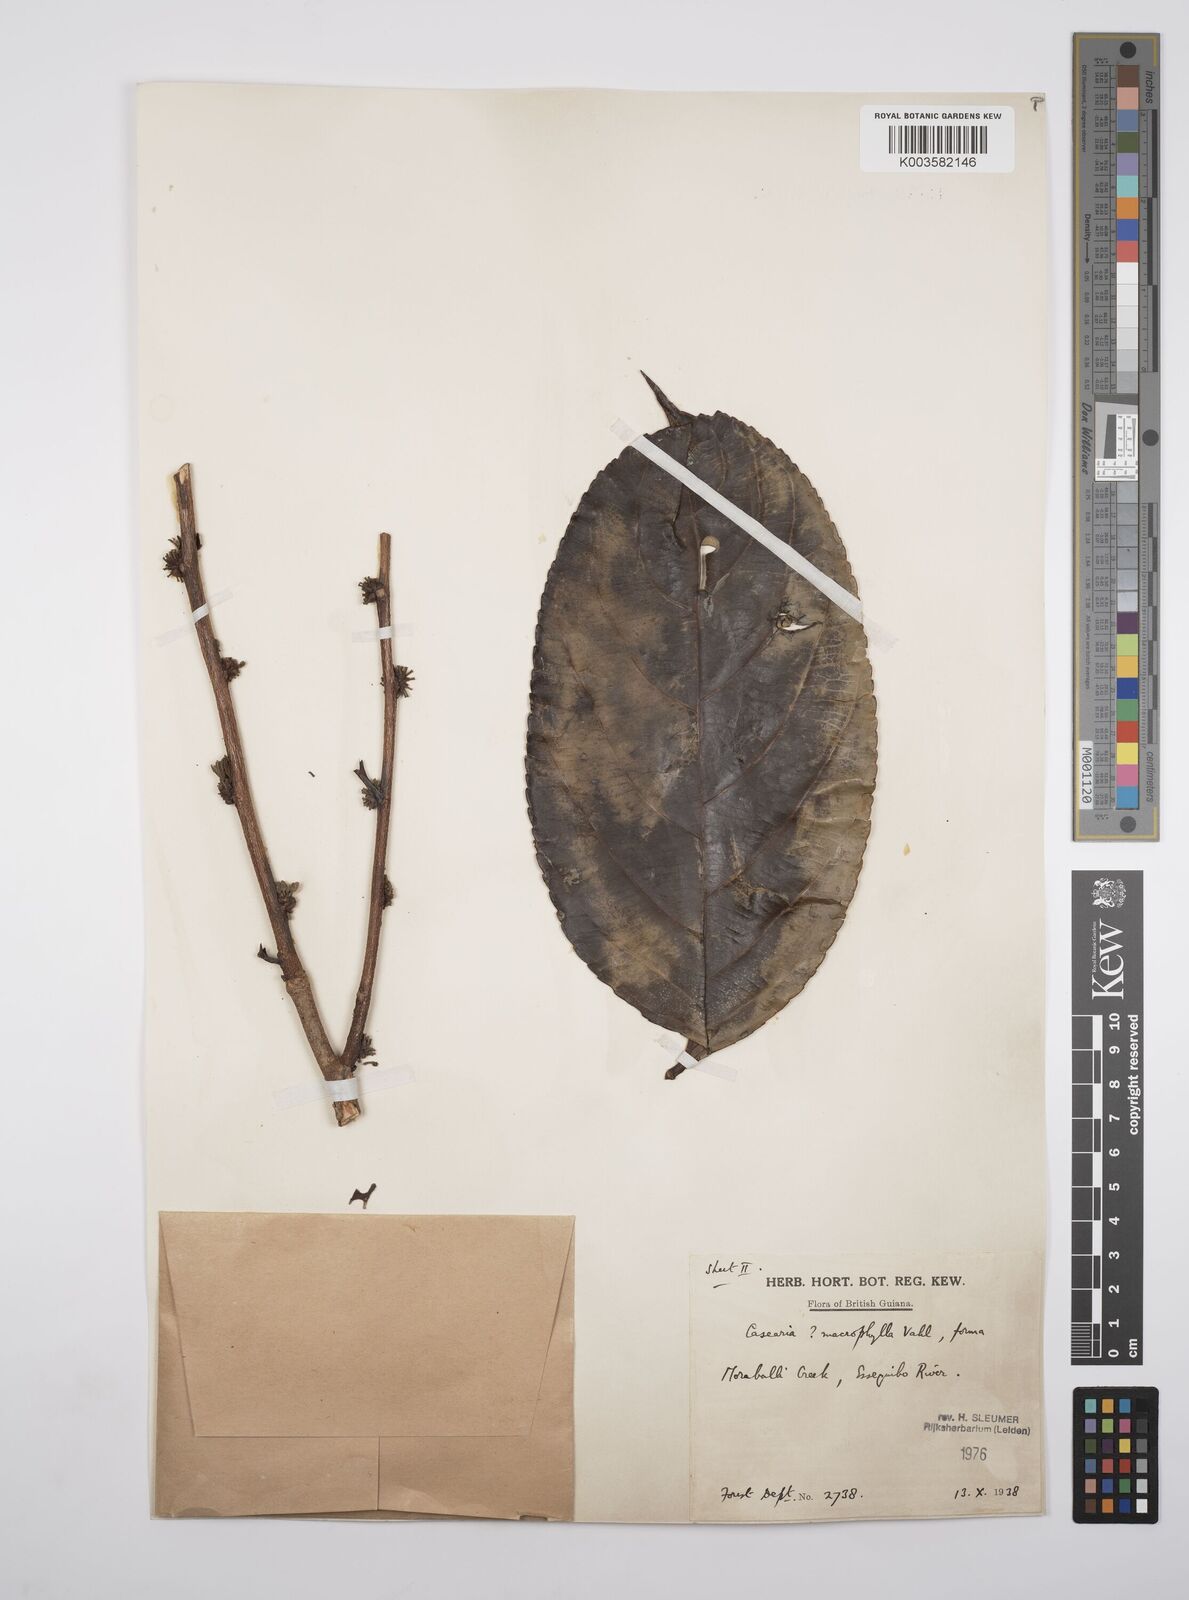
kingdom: Plantae
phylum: Tracheophyta
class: Magnoliopsida
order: Malpighiales
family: Salicaceae
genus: Casearia
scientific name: Casearia pitumba
